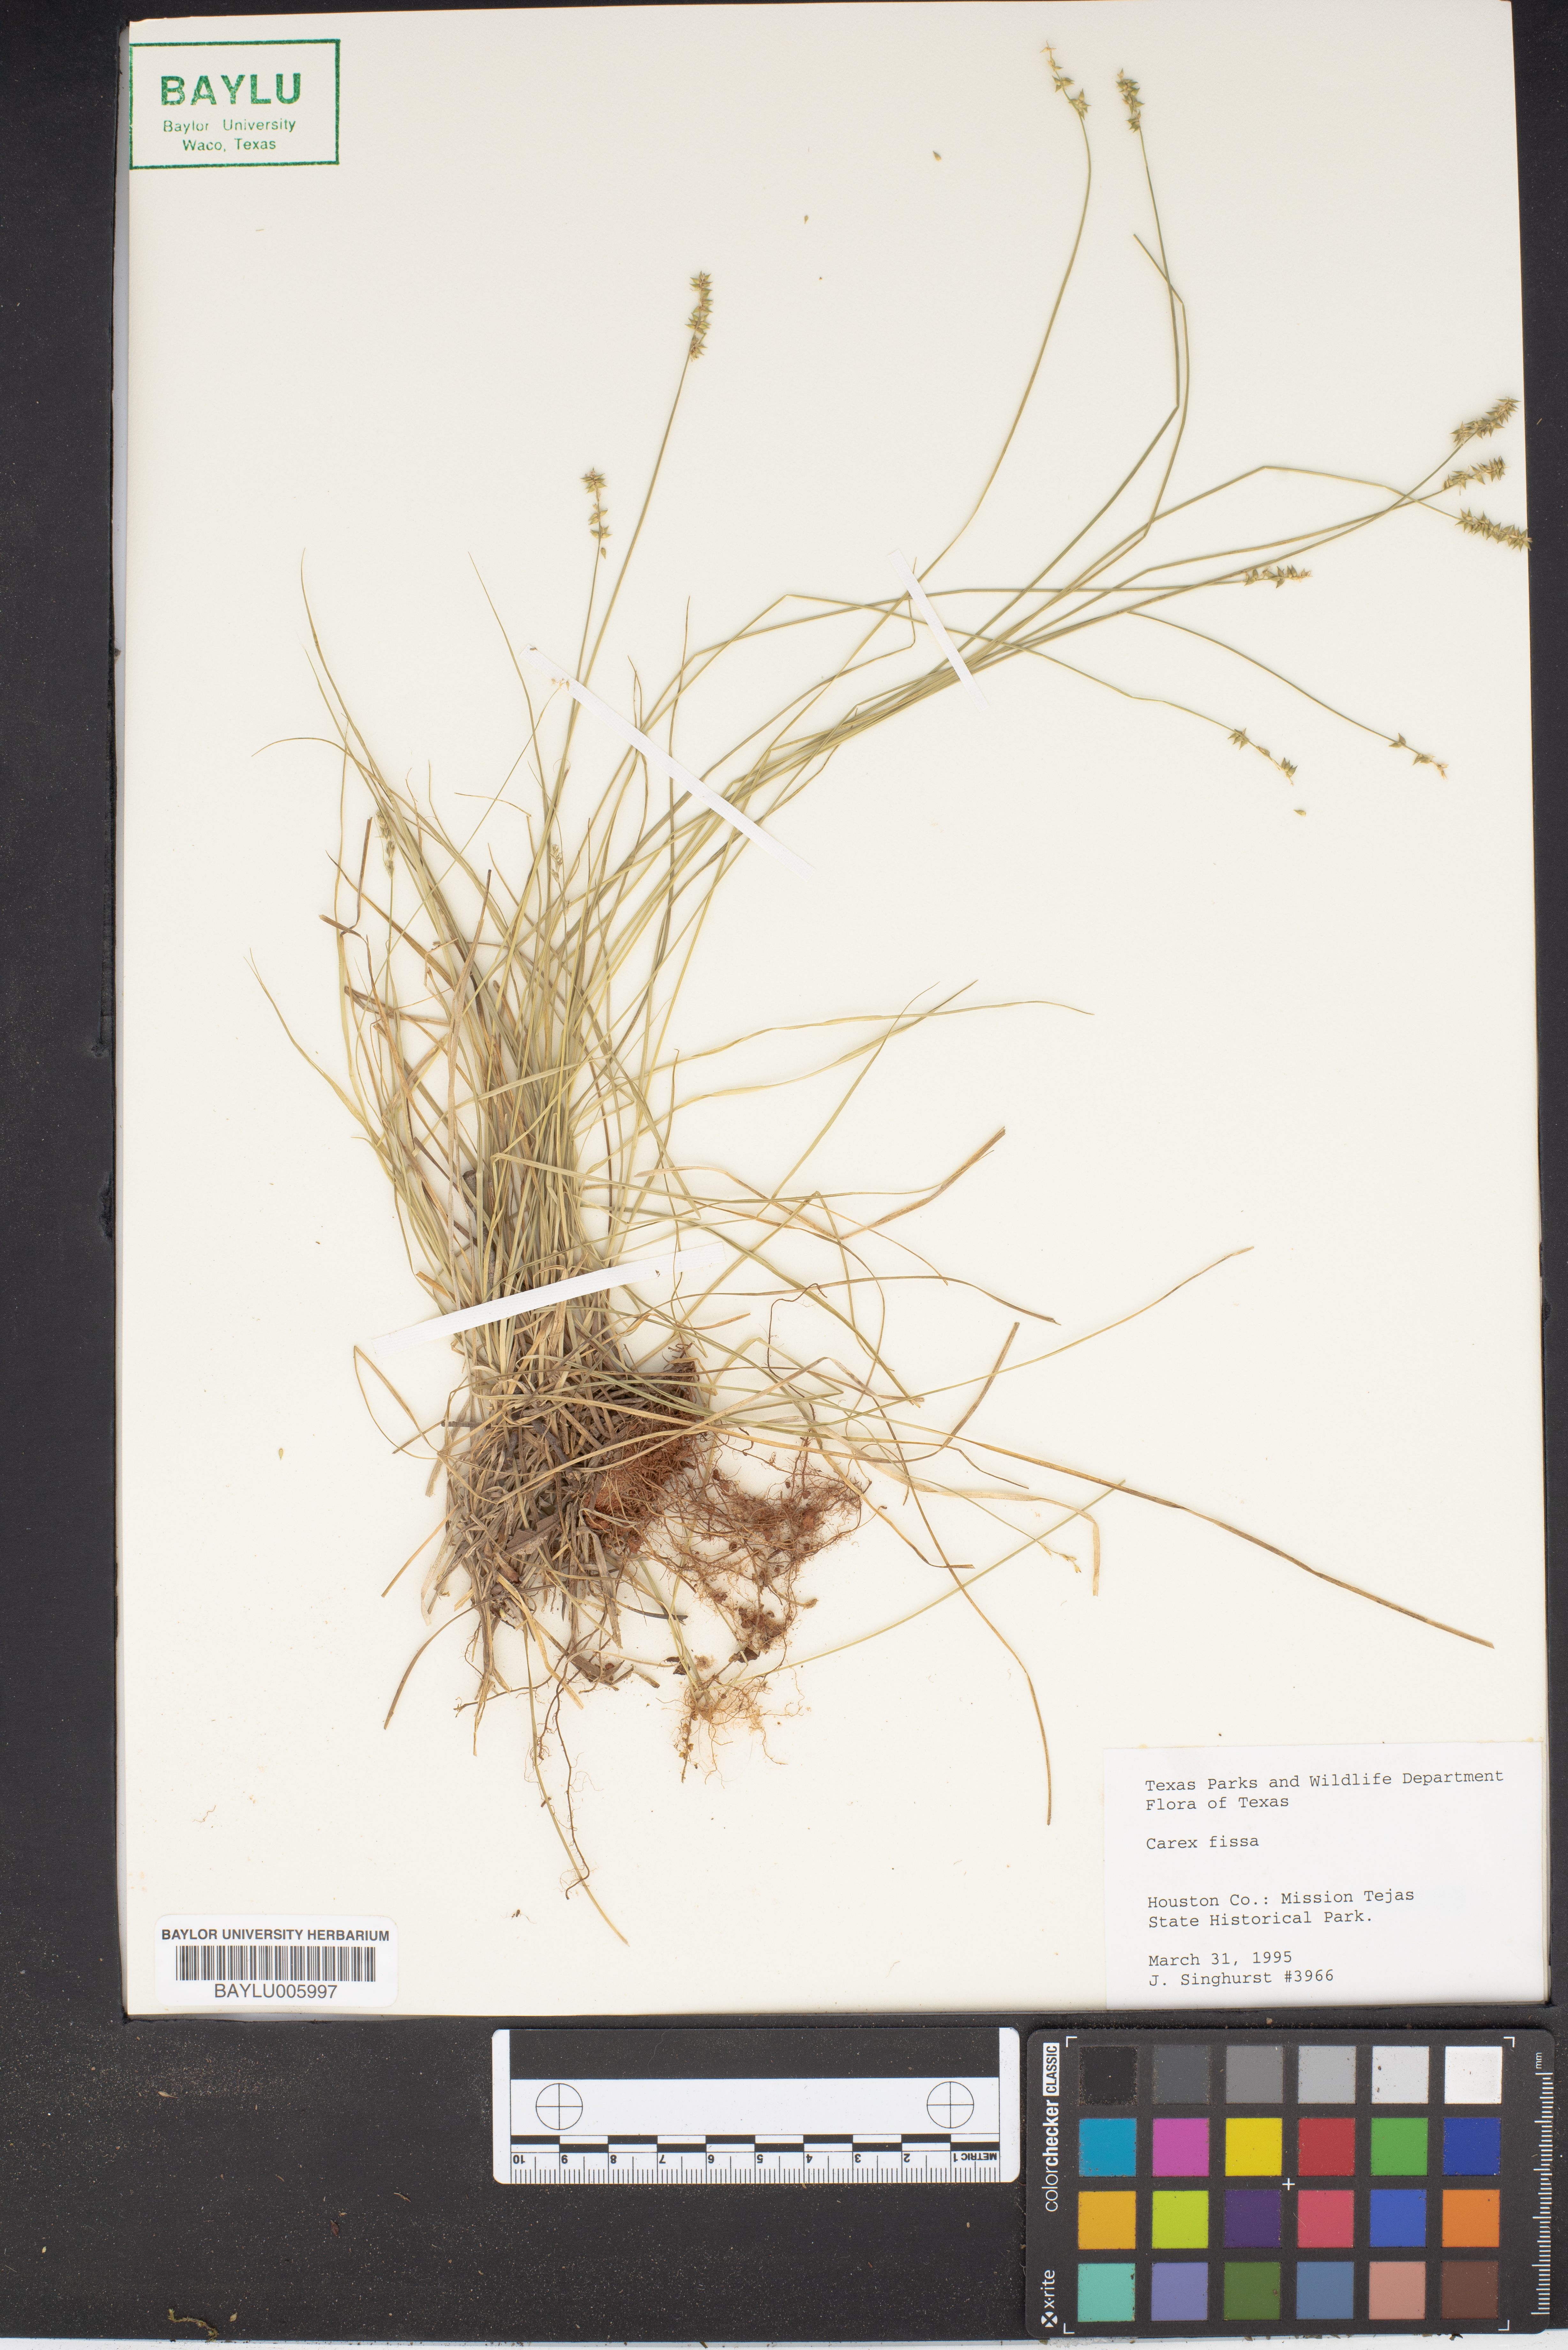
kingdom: Plantae
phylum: Tracheophyta
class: Liliopsida
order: Poales
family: Cyperaceae
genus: Carex
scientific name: Carex fissa
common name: Hammock sedge
